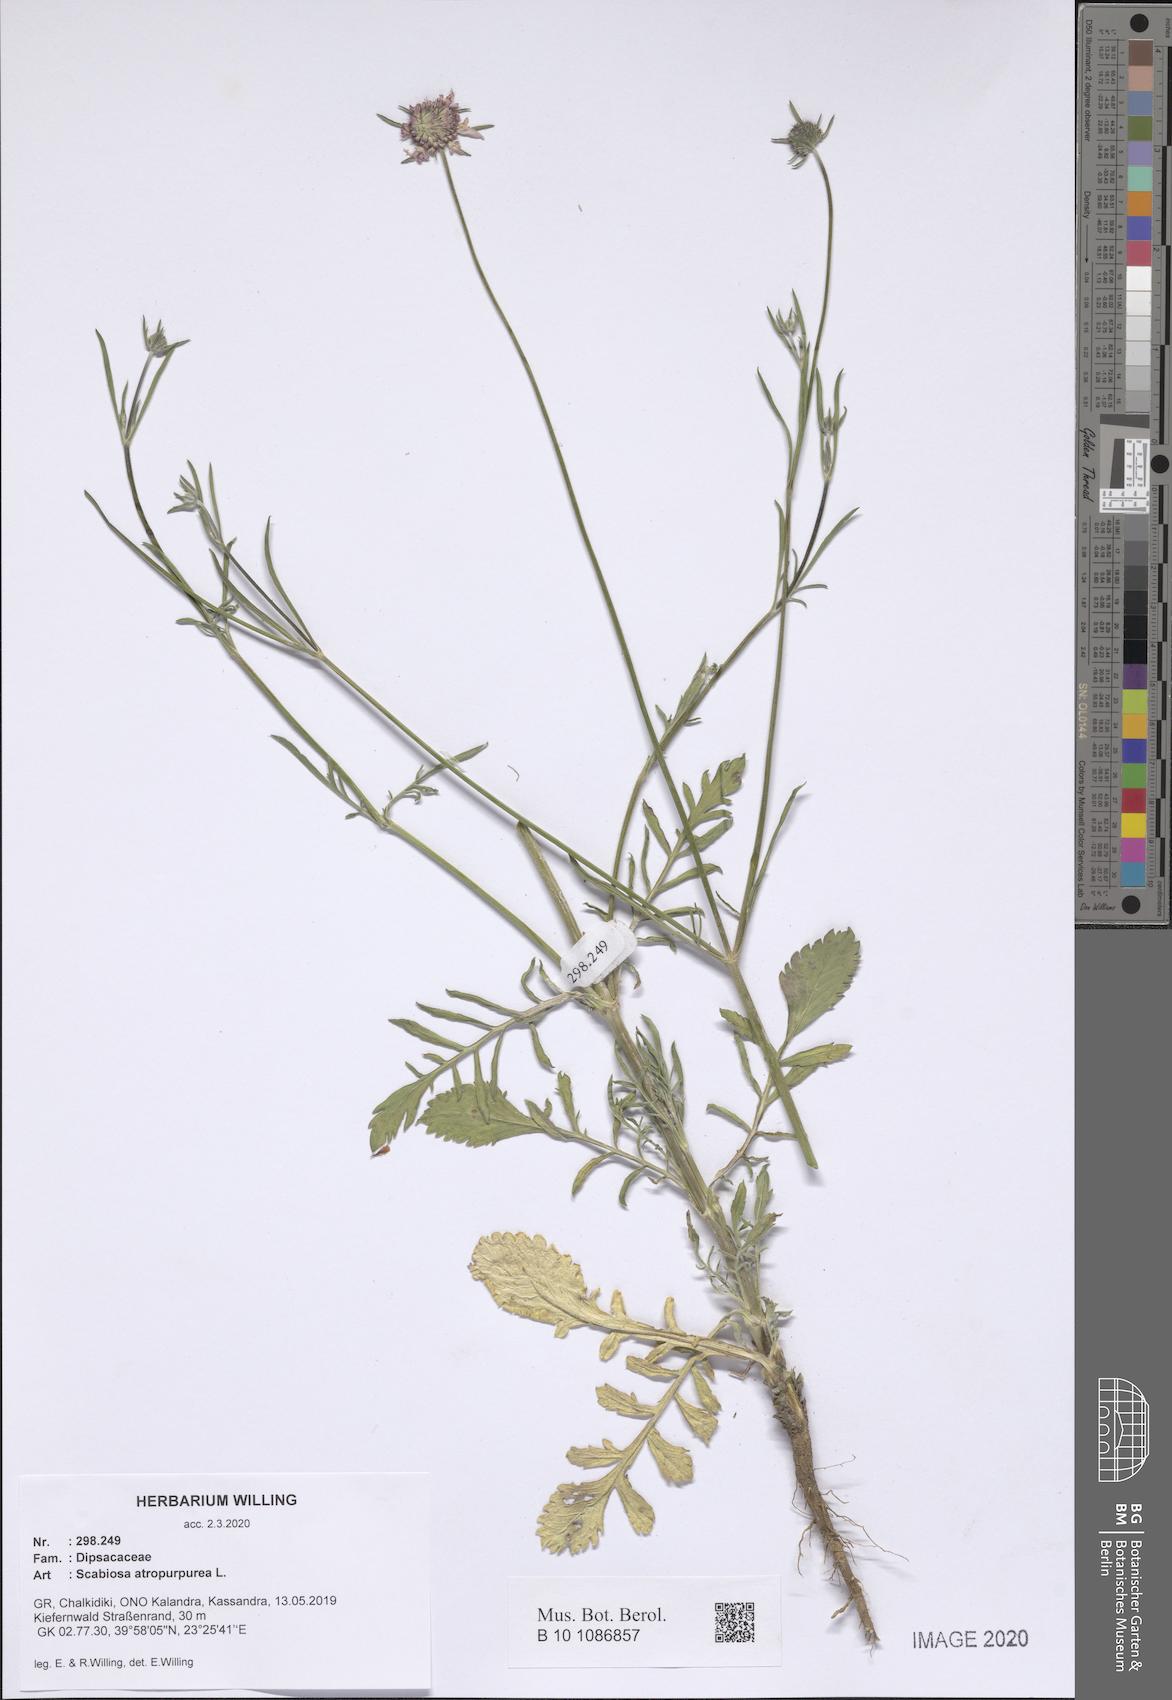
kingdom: Plantae
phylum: Tracheophyta
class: Magnoliopsida
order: Dipsacales
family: Caprifoliaceae
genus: Sixalix
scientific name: Sixalix atropurpurea
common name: Sweet scabious
